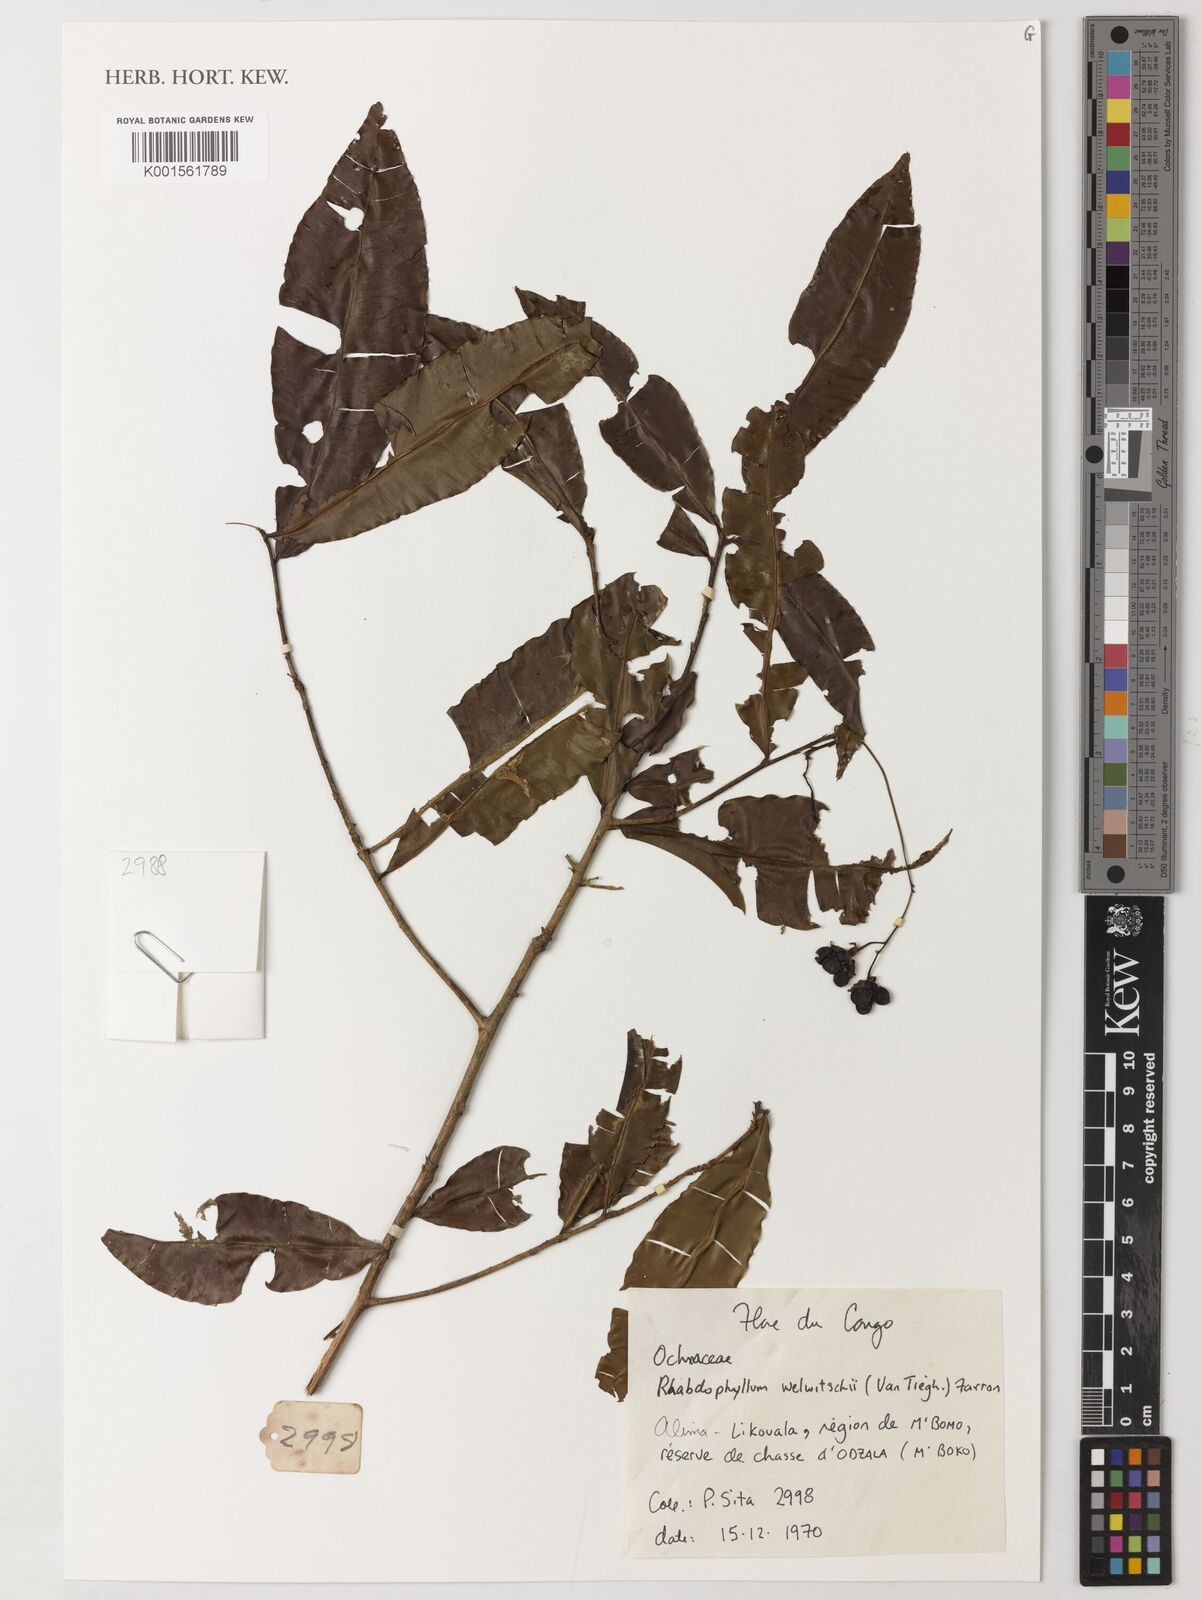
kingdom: Plantae
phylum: Tracheophyta
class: Magnoliopsida
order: Malpighiales
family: Ochnaceae
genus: Rhabdophyllum
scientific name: Rhabdophyllum welwitschii
